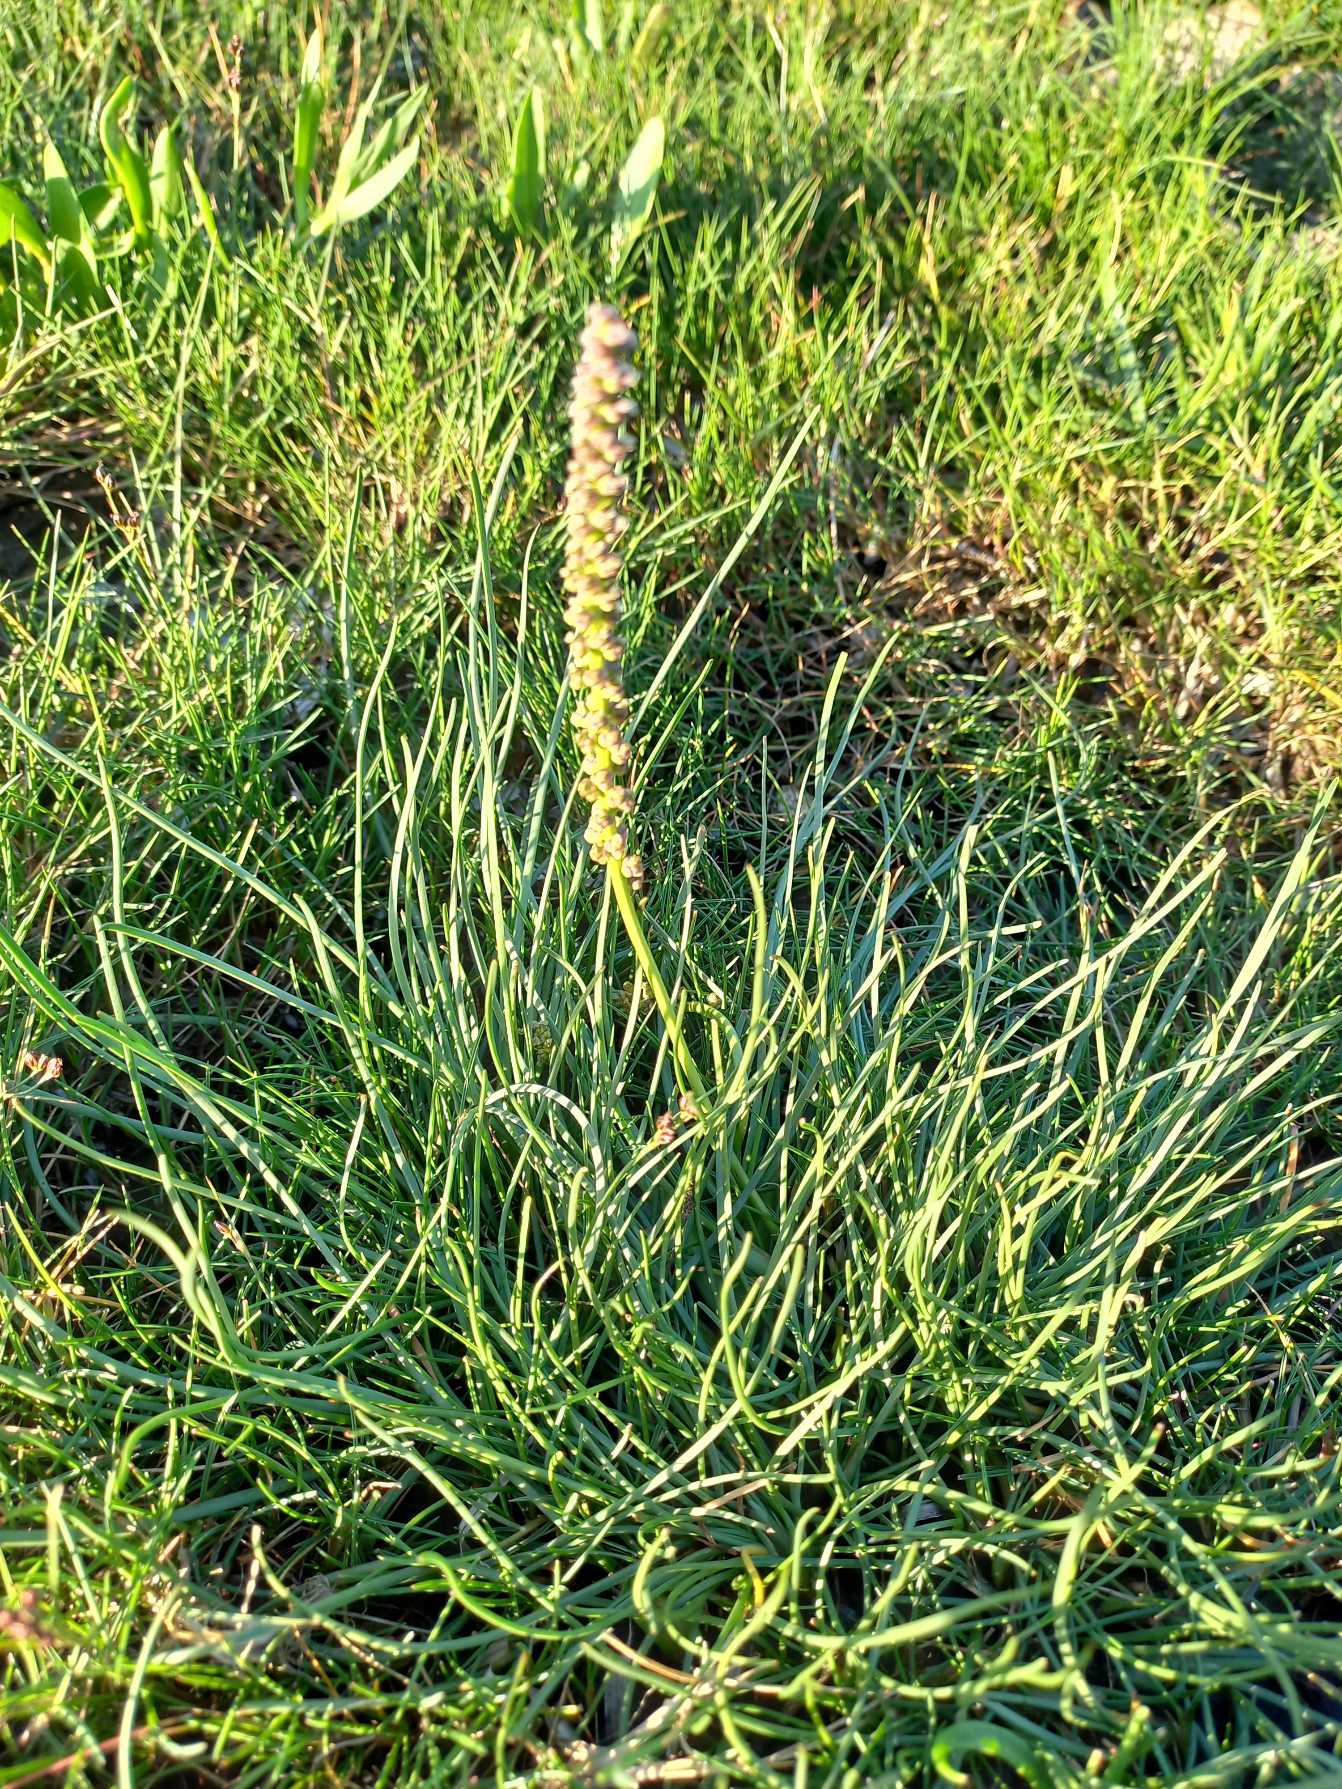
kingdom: Plantae
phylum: Tracheophyta
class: Liliopsida
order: Alismatales
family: Juncaginaceae
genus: Triglochin
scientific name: Triglochin maritima
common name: Strand-trehage
